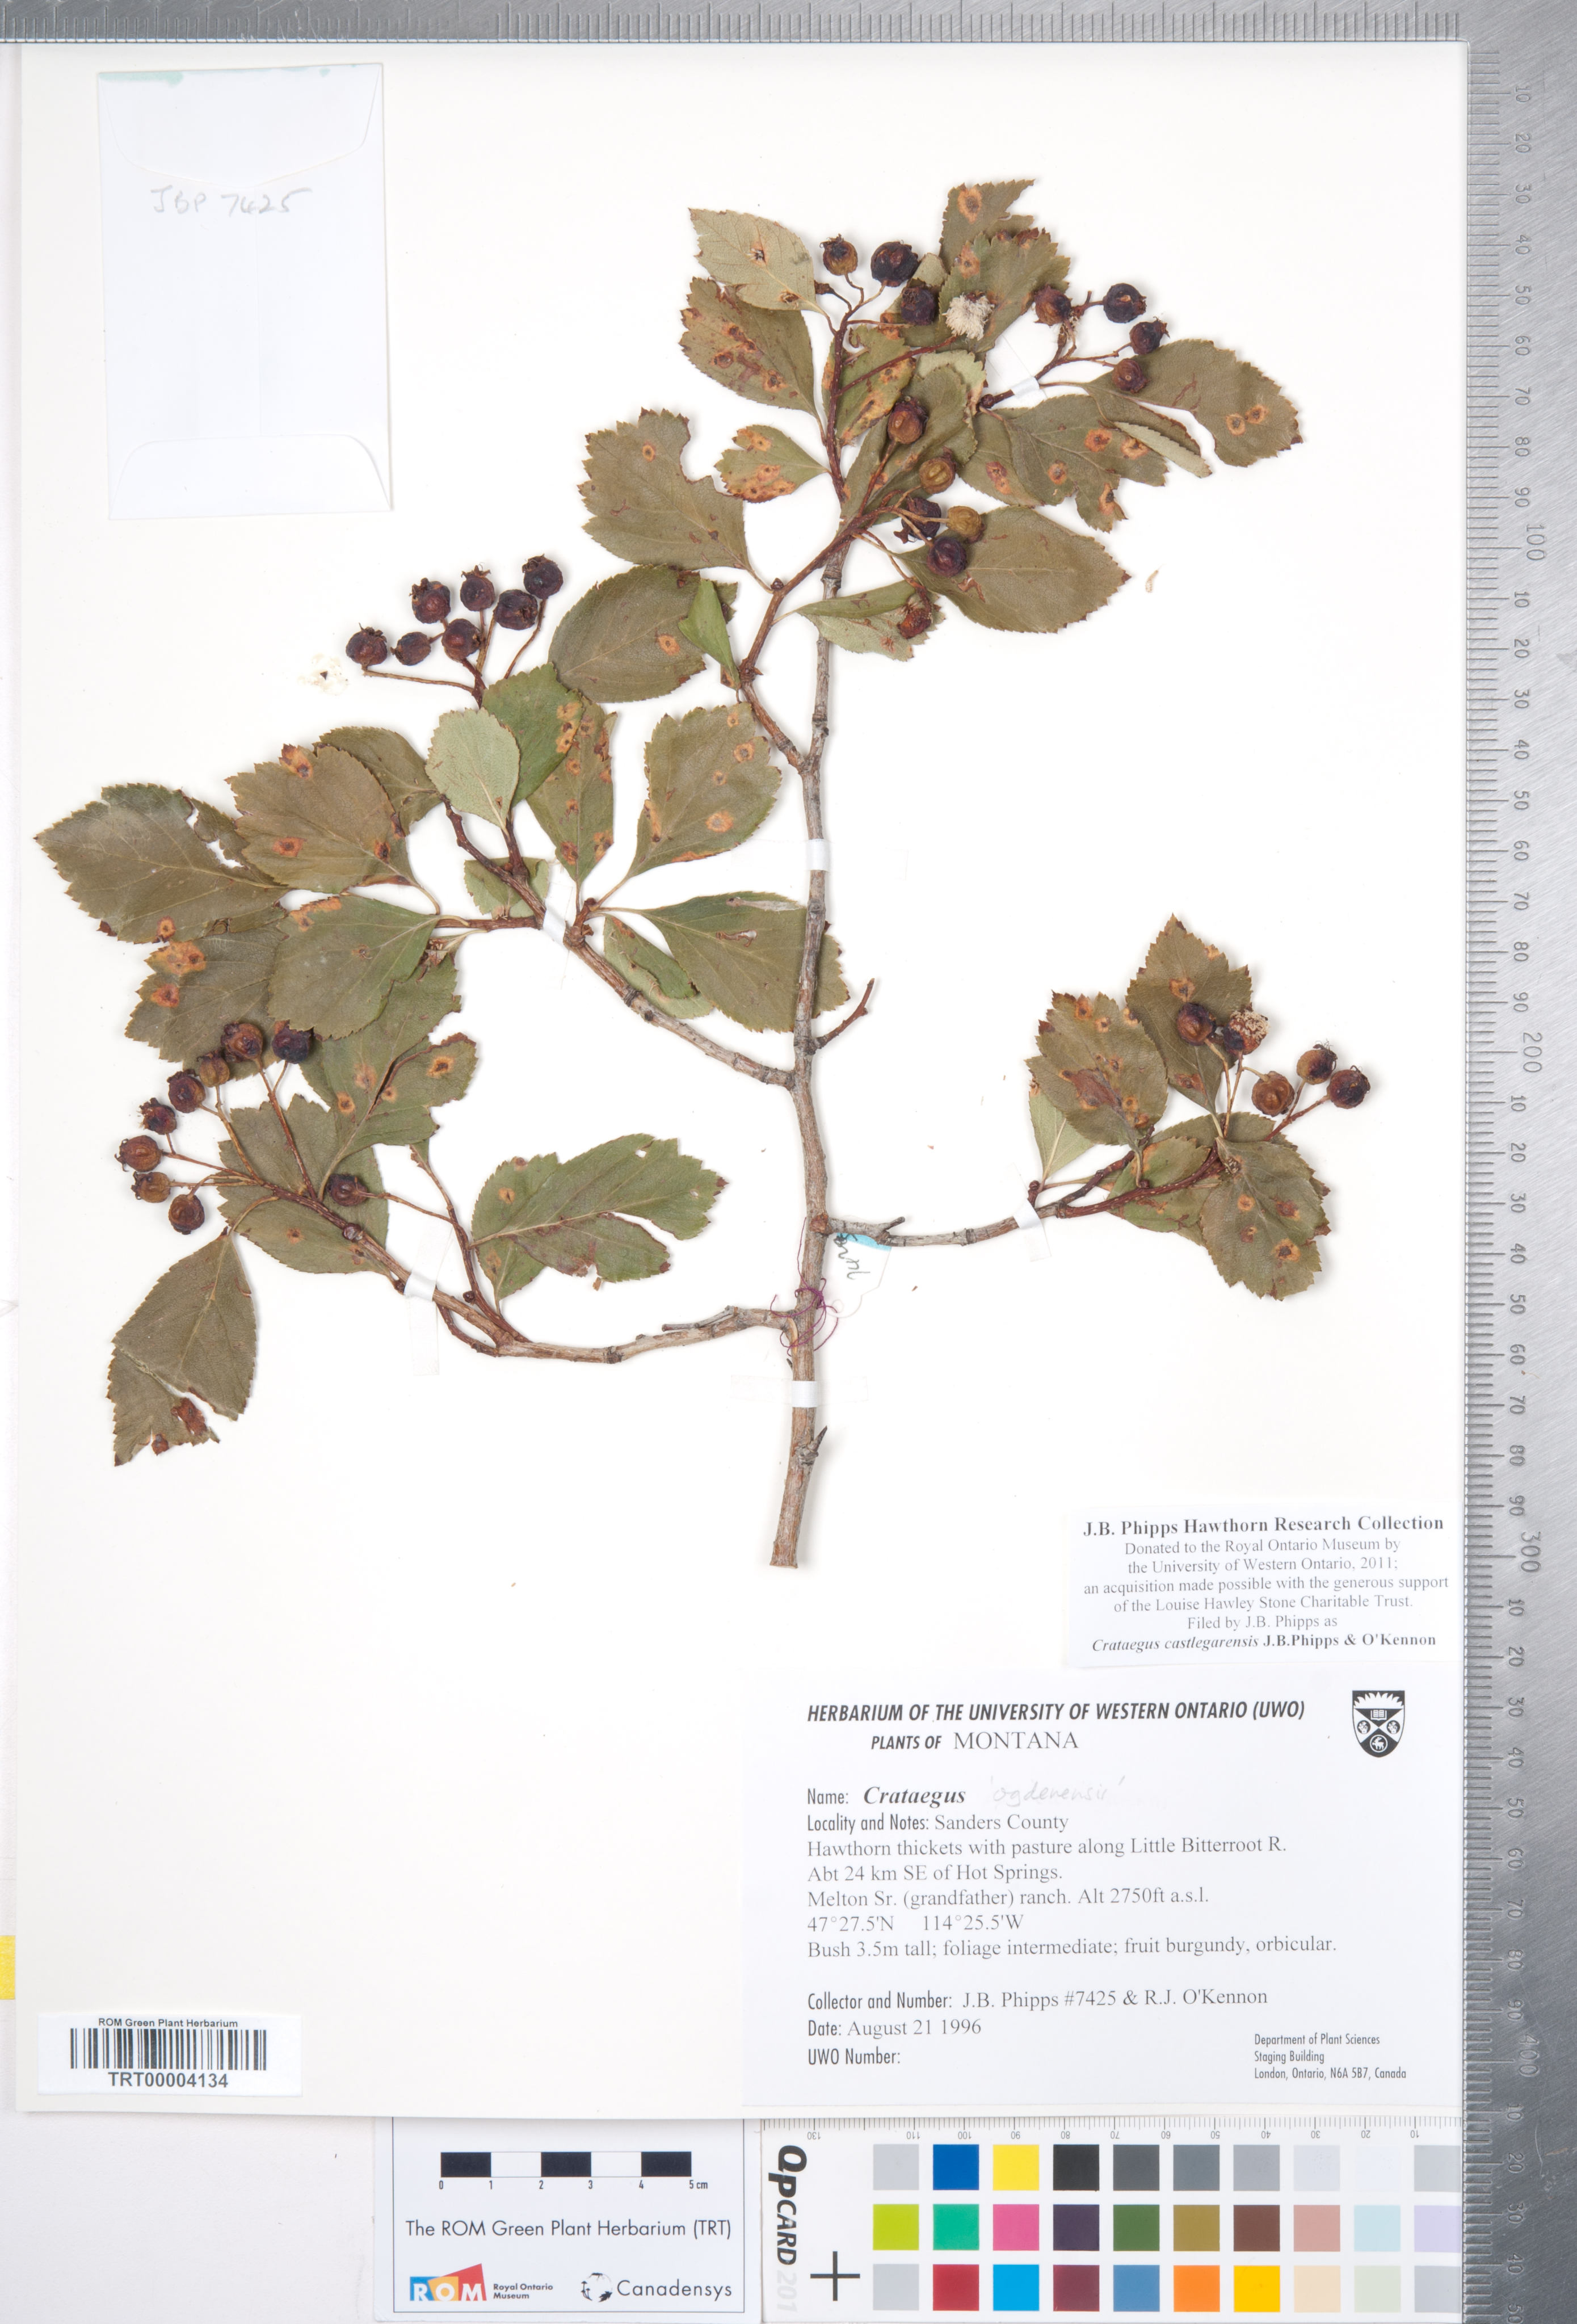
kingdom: Plantae
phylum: Tracheophyta
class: Magnoliopsida
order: Rosales
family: Rosaceae
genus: Crataegus
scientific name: Crataegus castlegarensis
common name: Castlegar hawthorn
